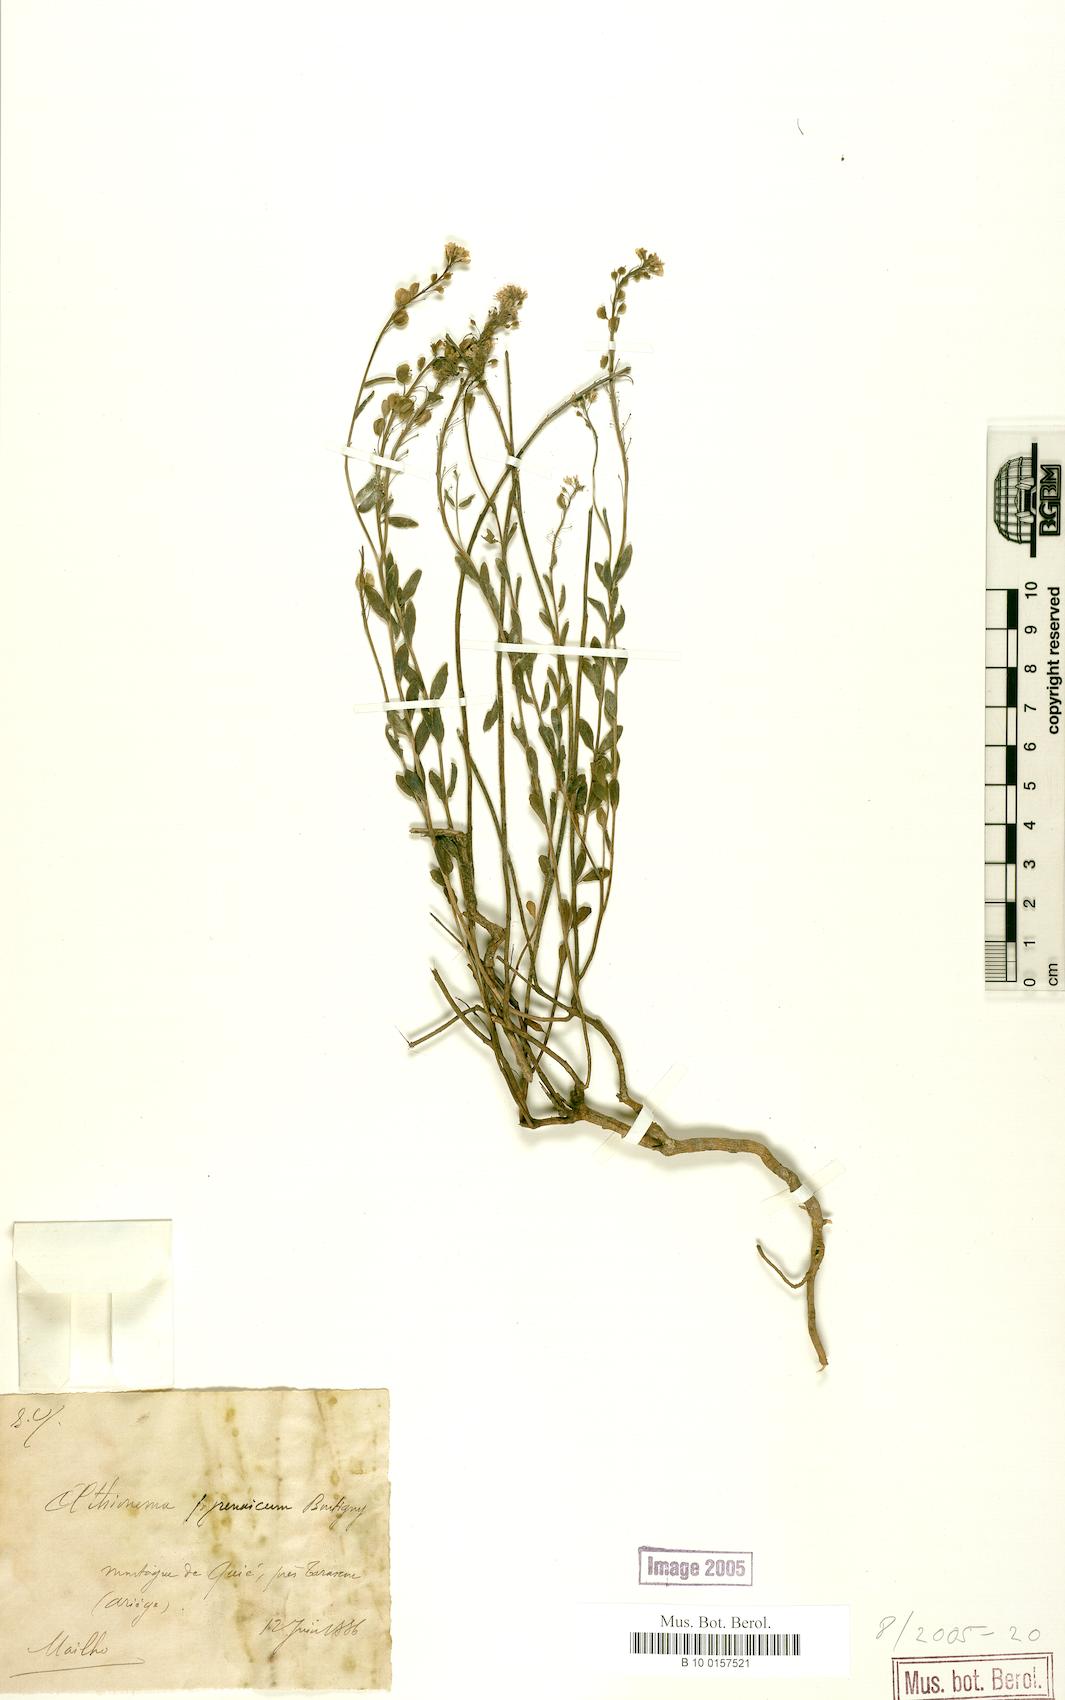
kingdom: Plantae
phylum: Tracheophyta
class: Magnoliopsida
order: Brassicales
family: Brassicaceae
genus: Aethionema
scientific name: Aethionema saxatile
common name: Burnt candytuft
